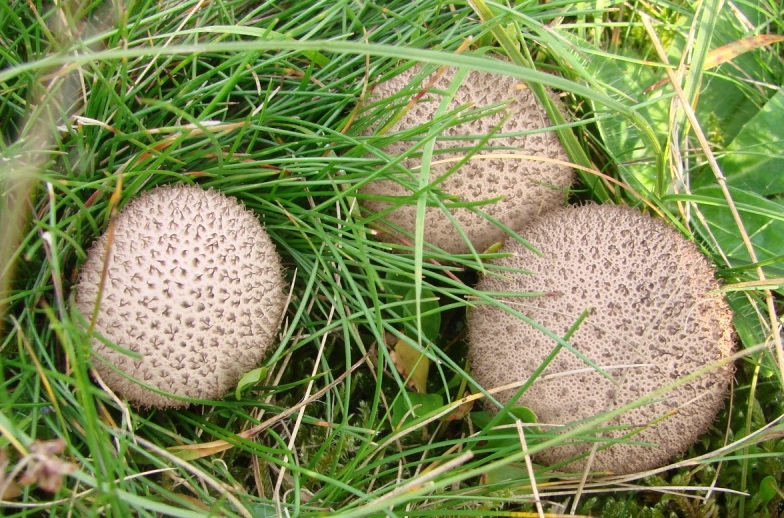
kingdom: Fungi
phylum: Basidiomycota
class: Agaricomycetes
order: Agaricales
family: Lycoperdaceae
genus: Lycoperdon
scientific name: Lycoperdon nigrescens
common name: sortagtig støvbold
